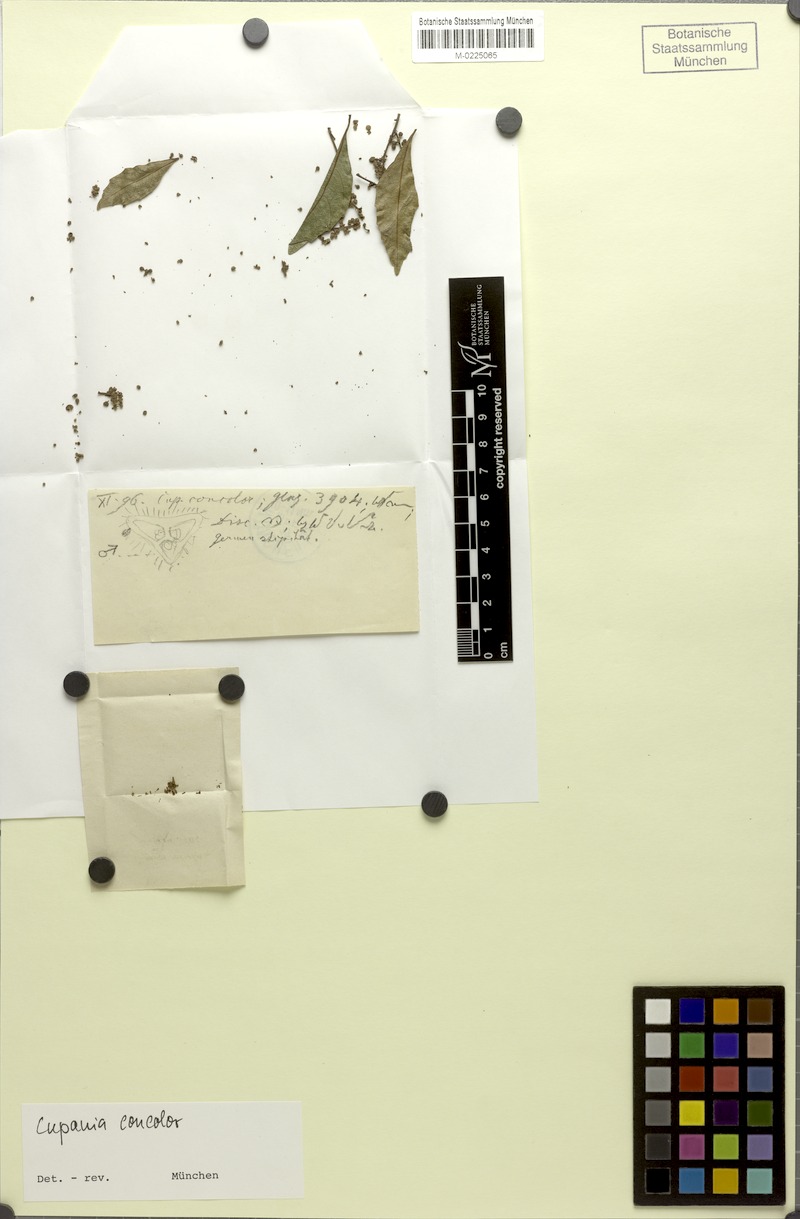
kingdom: Plantae
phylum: Tracheophyta
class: Magnoliopsida
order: Sapindales
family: Sapindaceae
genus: Cupania
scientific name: Cupania concolor
